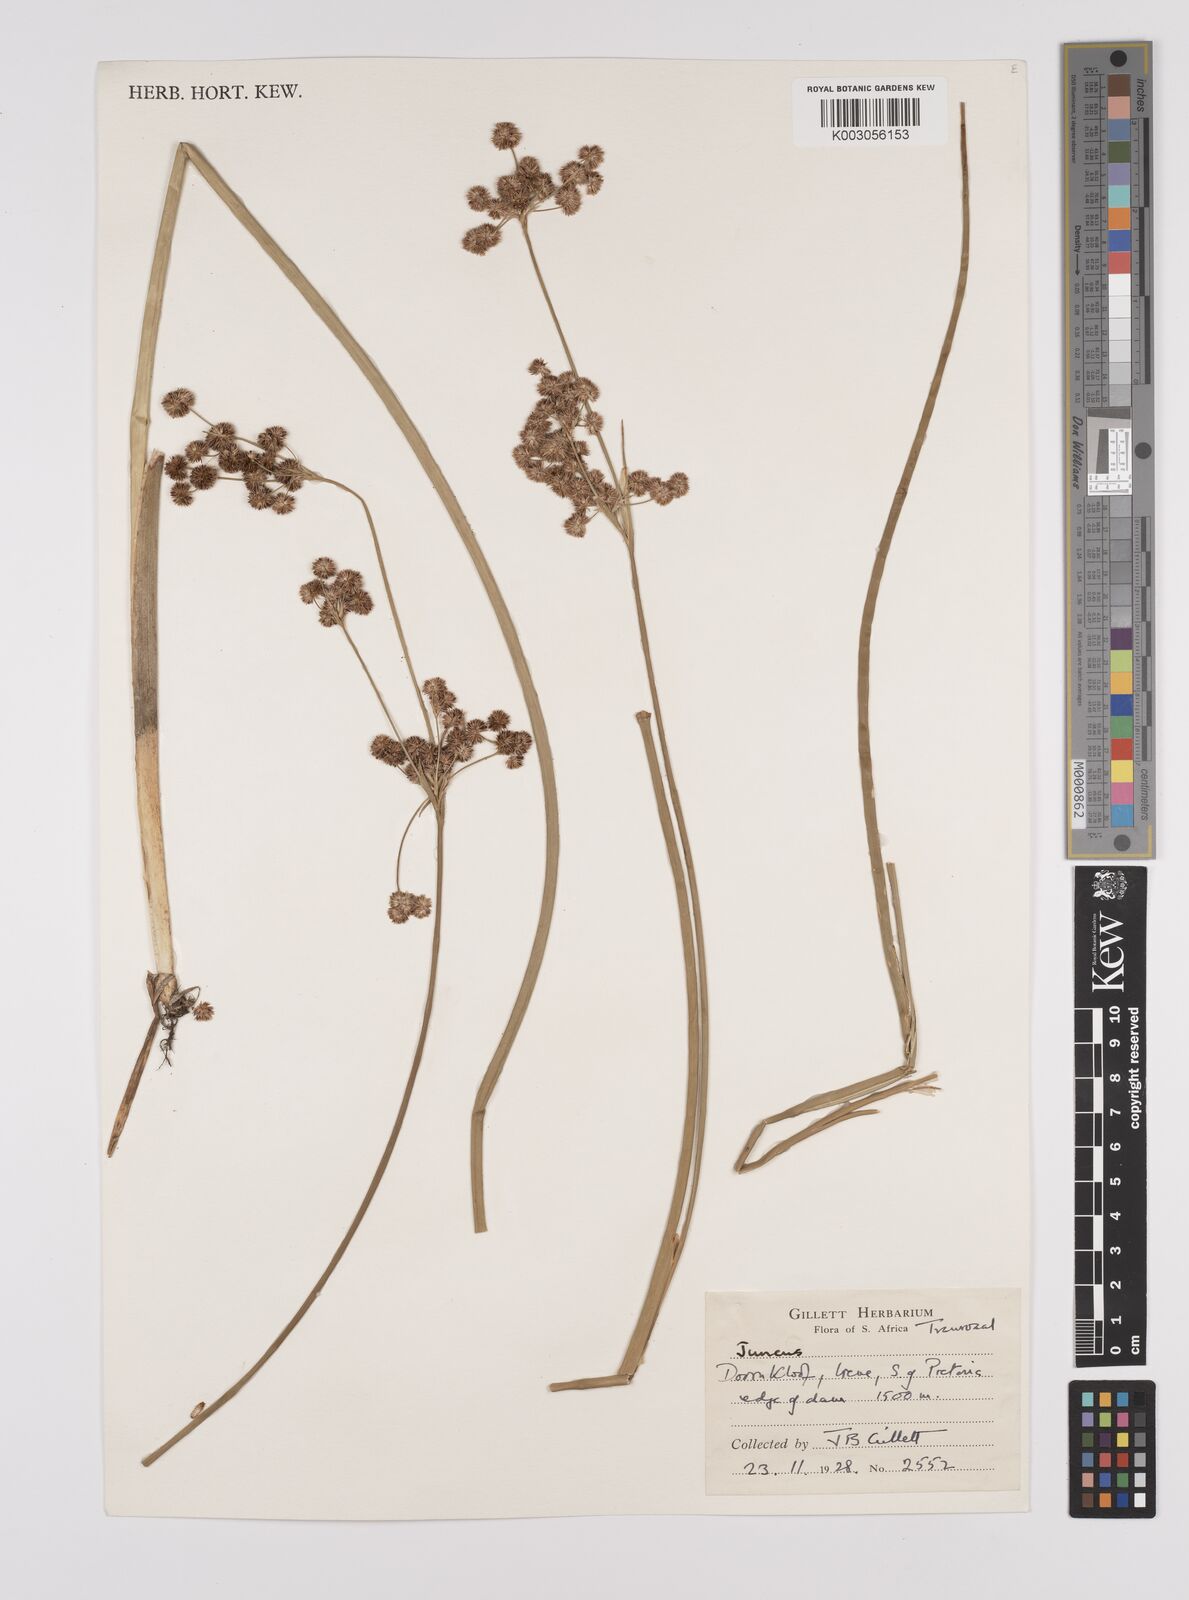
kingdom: Plantae
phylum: Tracheophyta
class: Liliopsida
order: Poales
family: Juncaceae
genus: Juncus
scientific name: Juncus
